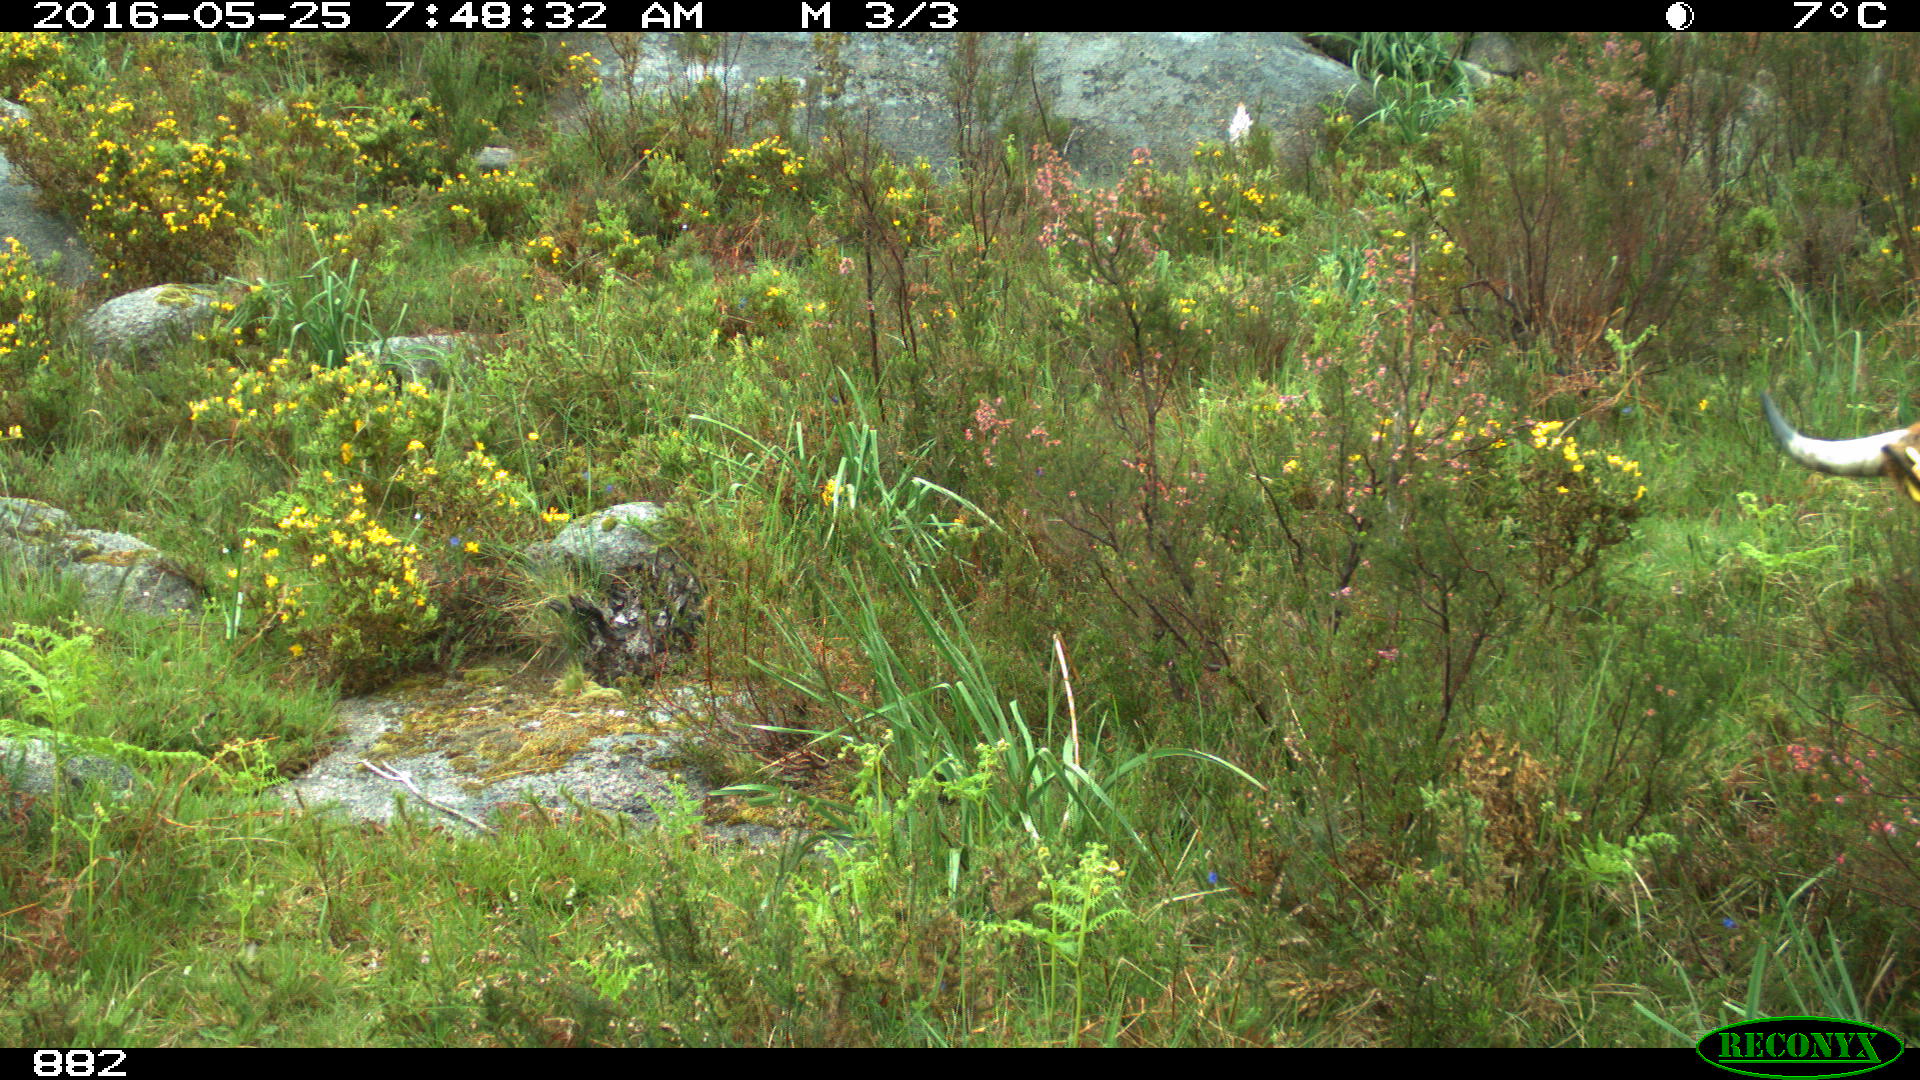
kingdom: Animalia
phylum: Chordata
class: Mammalia
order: Artiodactyla
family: Bovidae
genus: Bos
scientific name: Bos taurus
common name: Domesticated cattle
